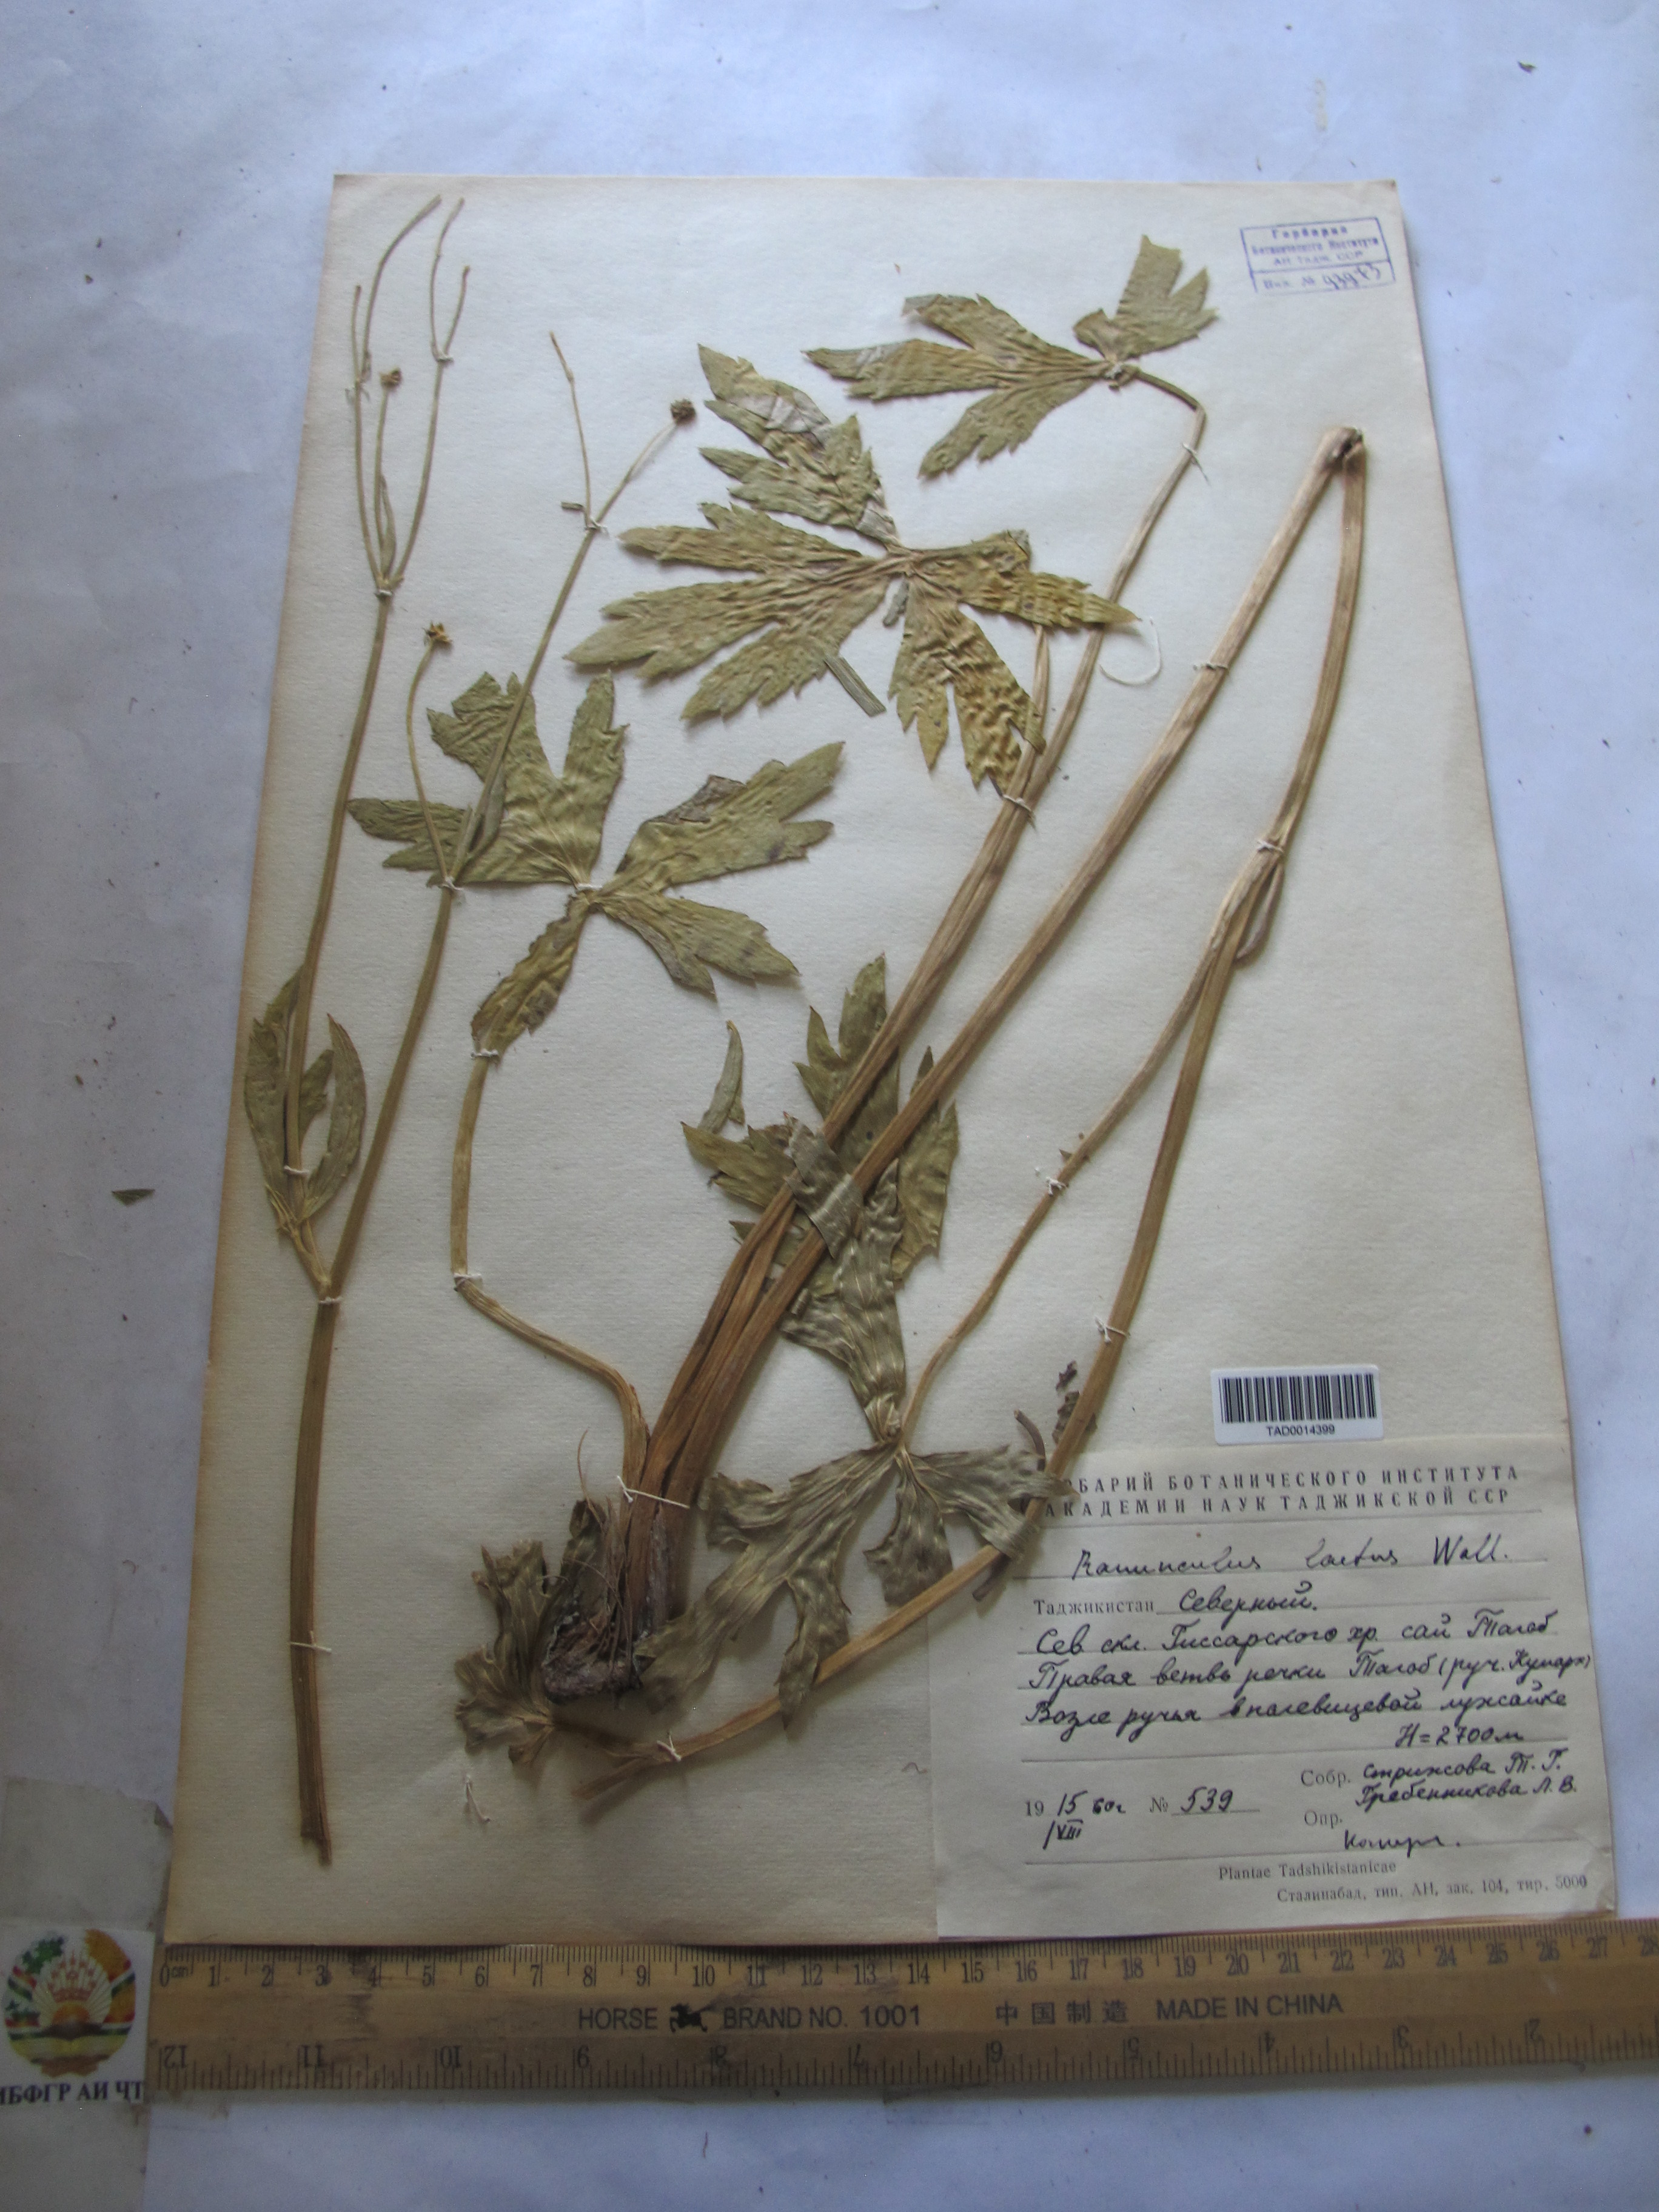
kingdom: Plantae
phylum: Tracheophyta
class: Magnoliopsida
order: Ranunculales
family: Ranunculaceae
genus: Ranunculus
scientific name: Ranunculus distans
